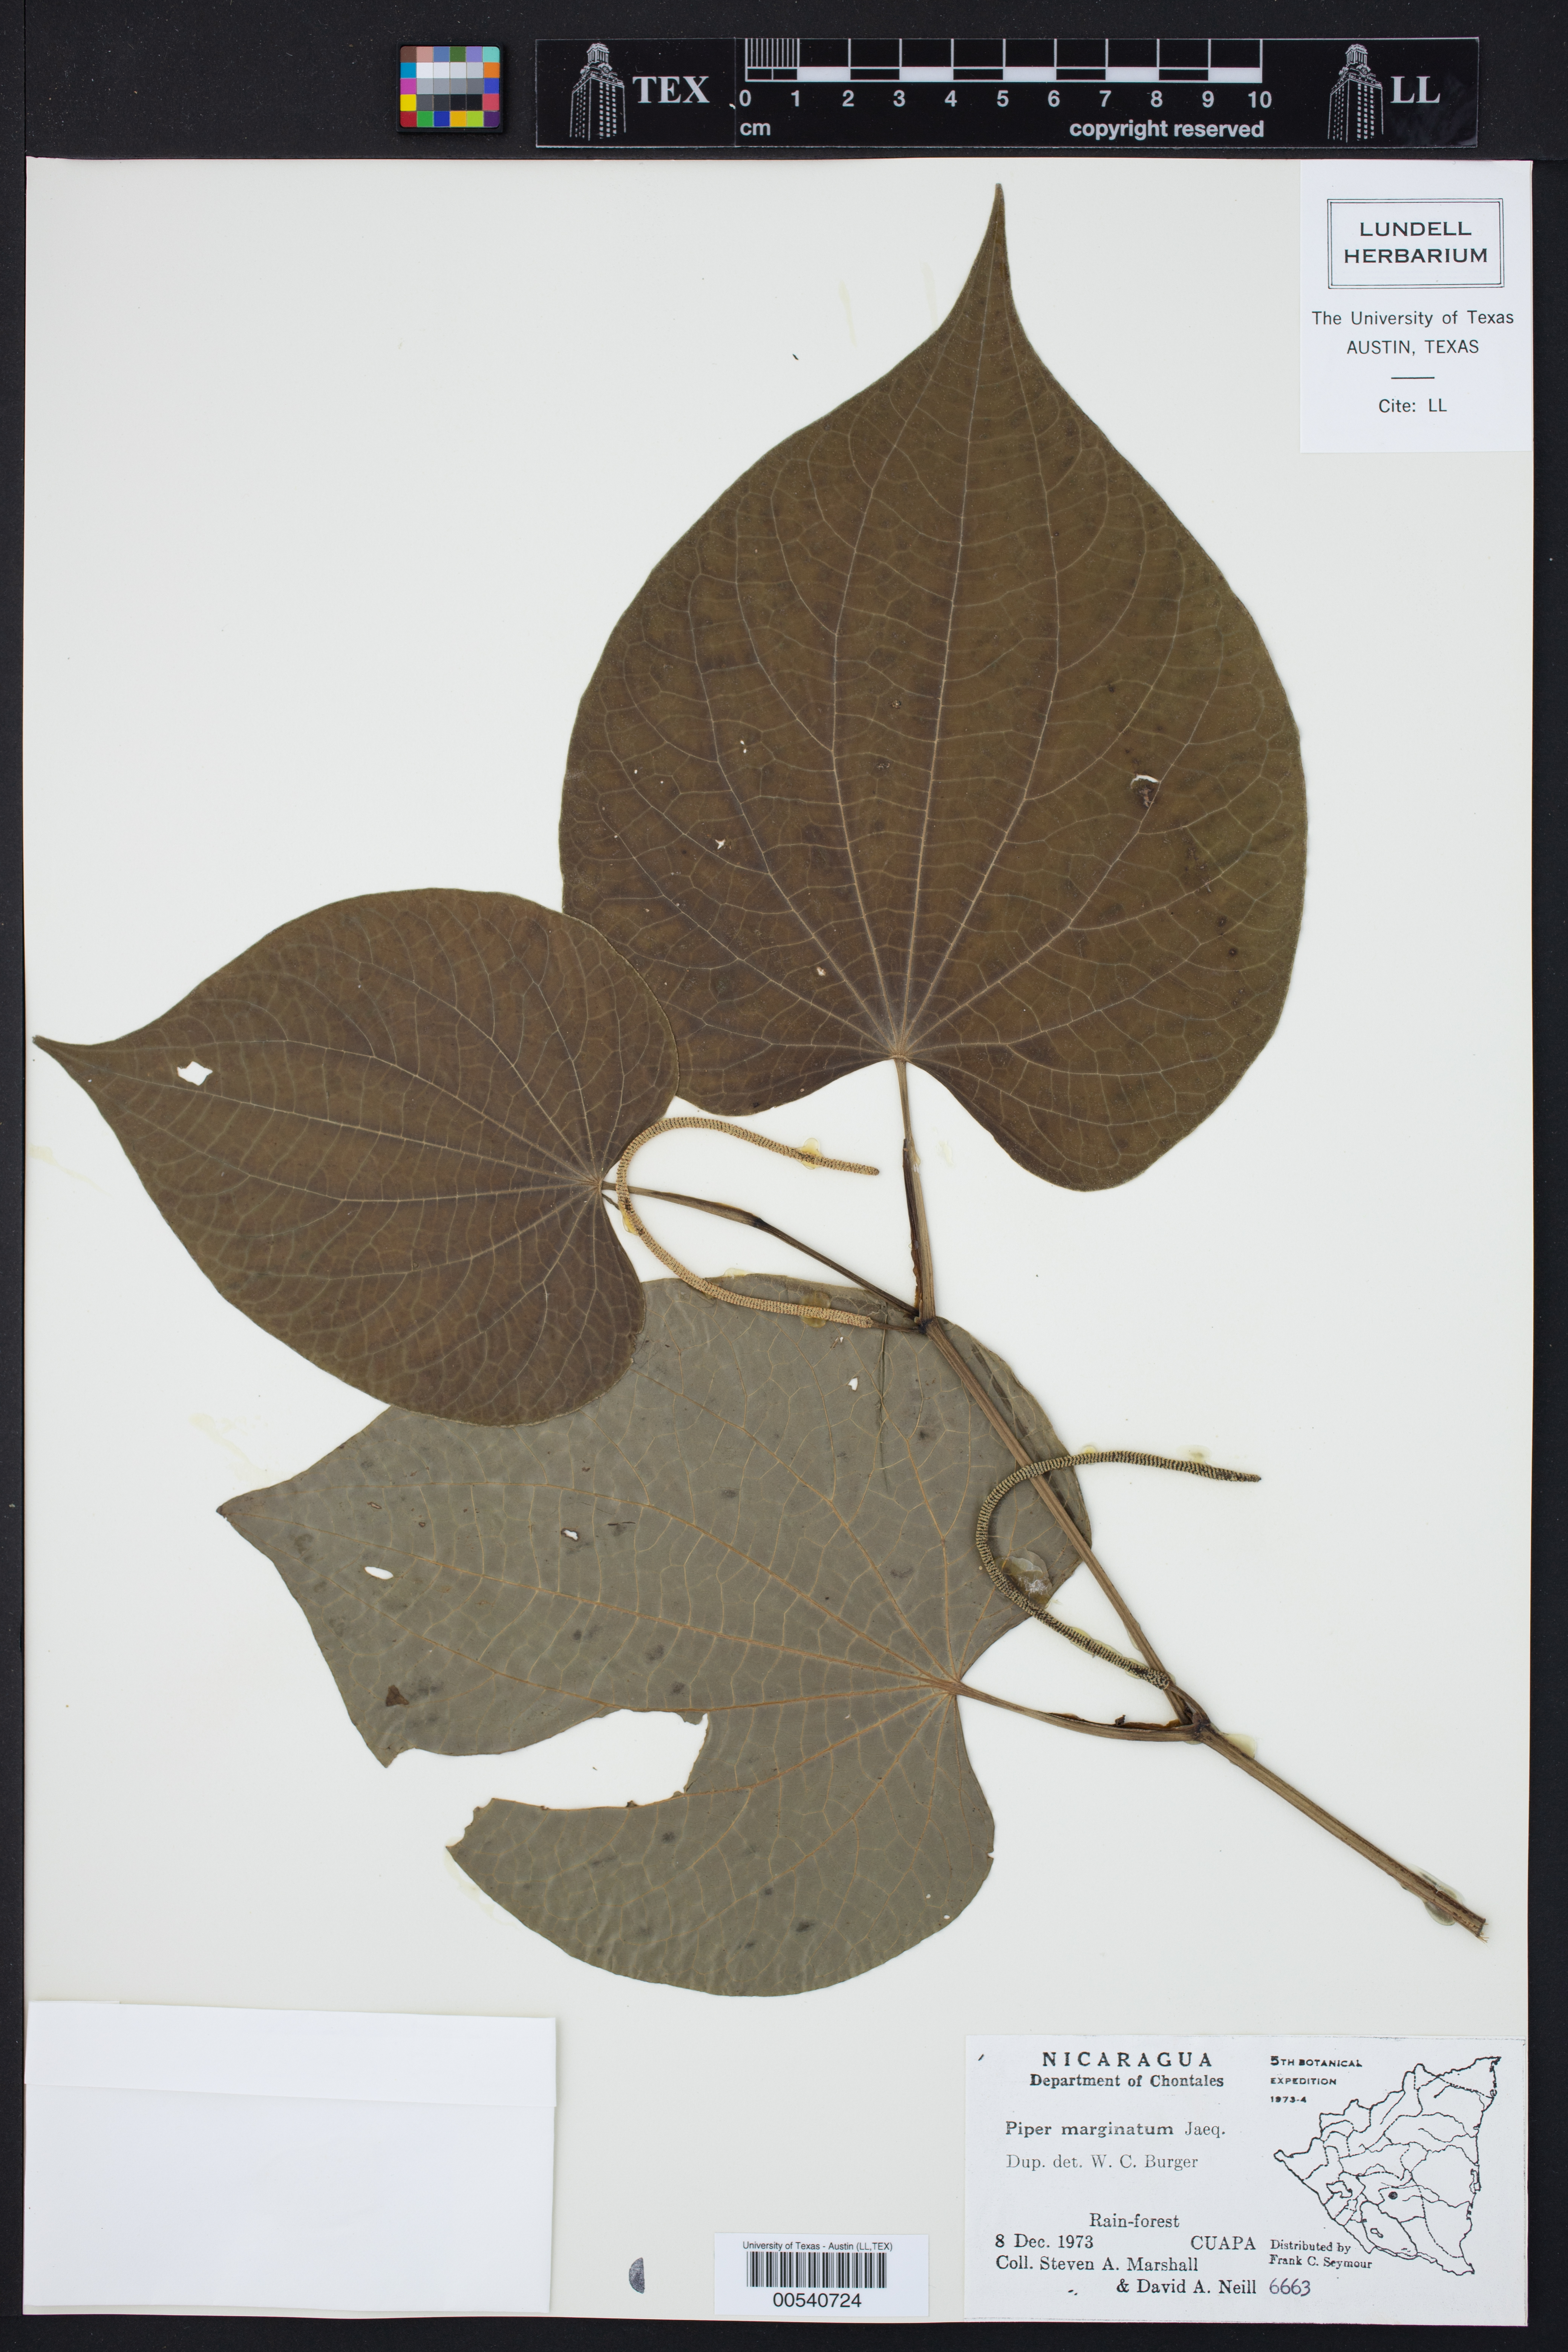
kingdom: Plantae
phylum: Tracheophyta
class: Magnoliopsida
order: Piperales
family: Piperaceae
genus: Piper
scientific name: Piper marginatum
